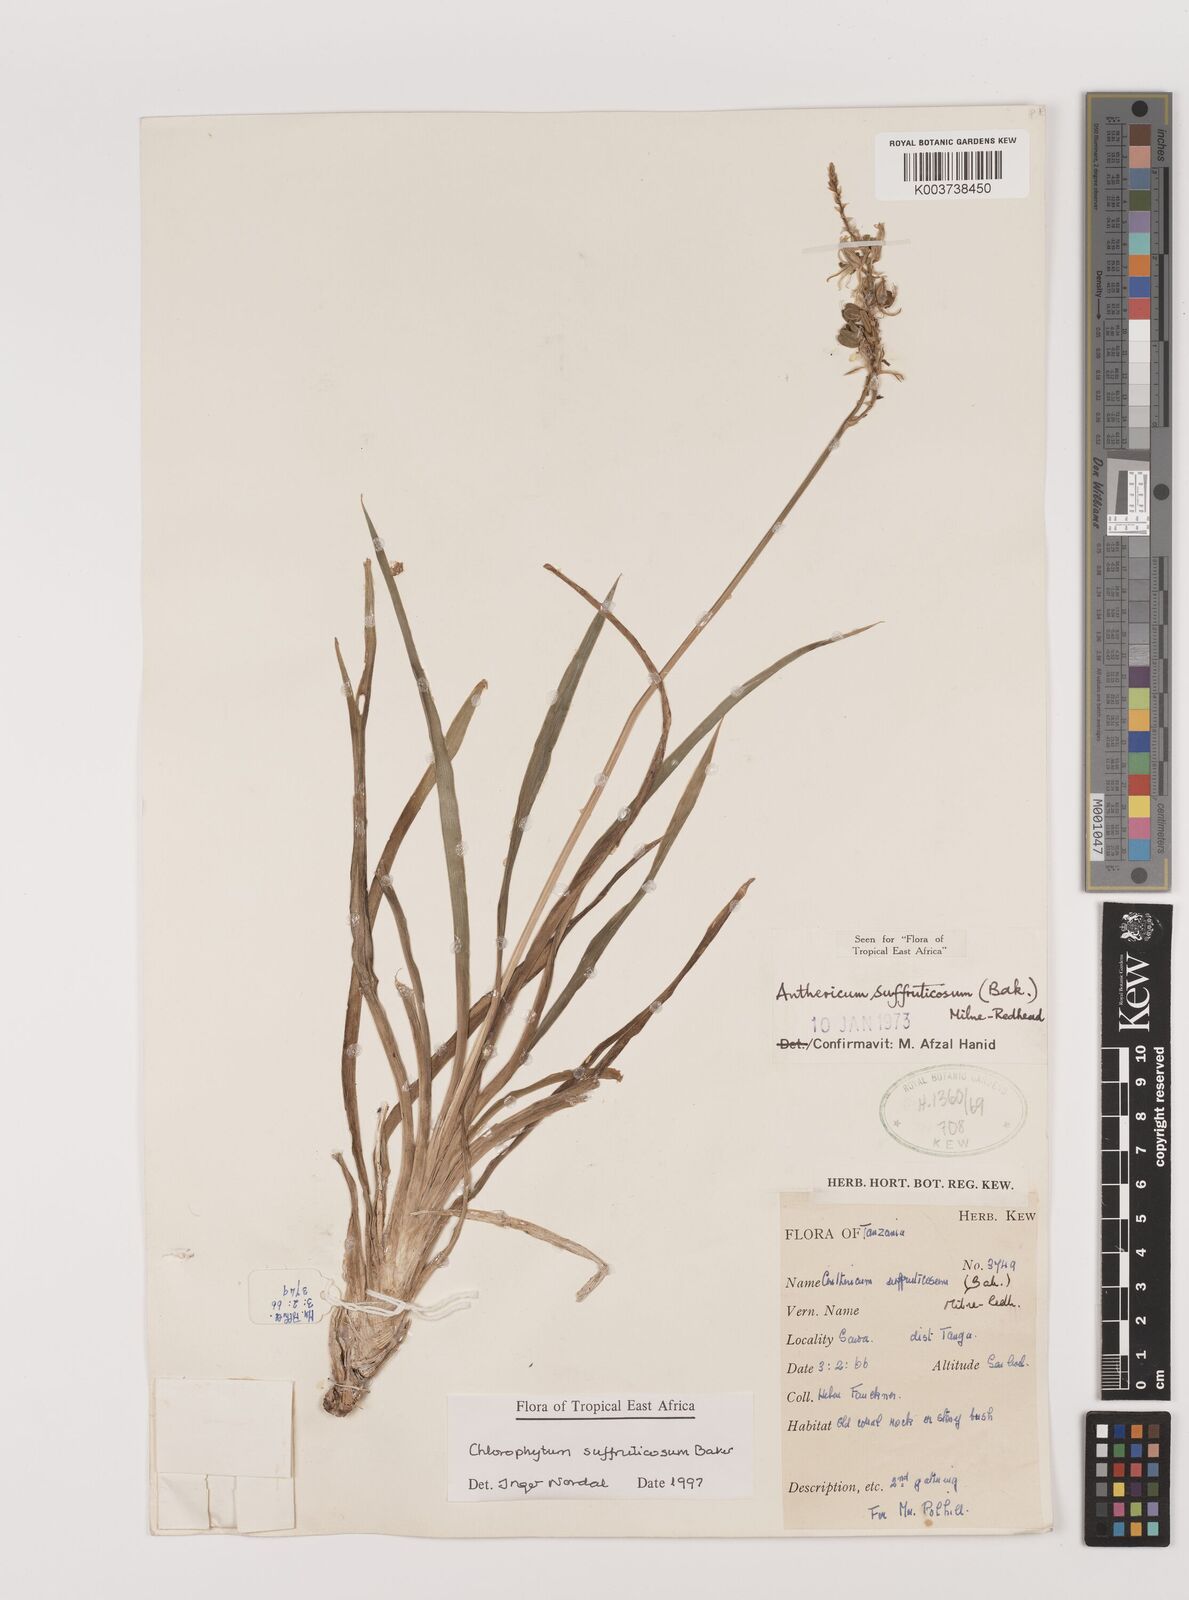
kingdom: Plantae
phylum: Tracheophyta
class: Liliopsida
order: Asparagales
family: Asparagaceae
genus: Chlorophytum
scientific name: Chlorophytum suffruticosum
